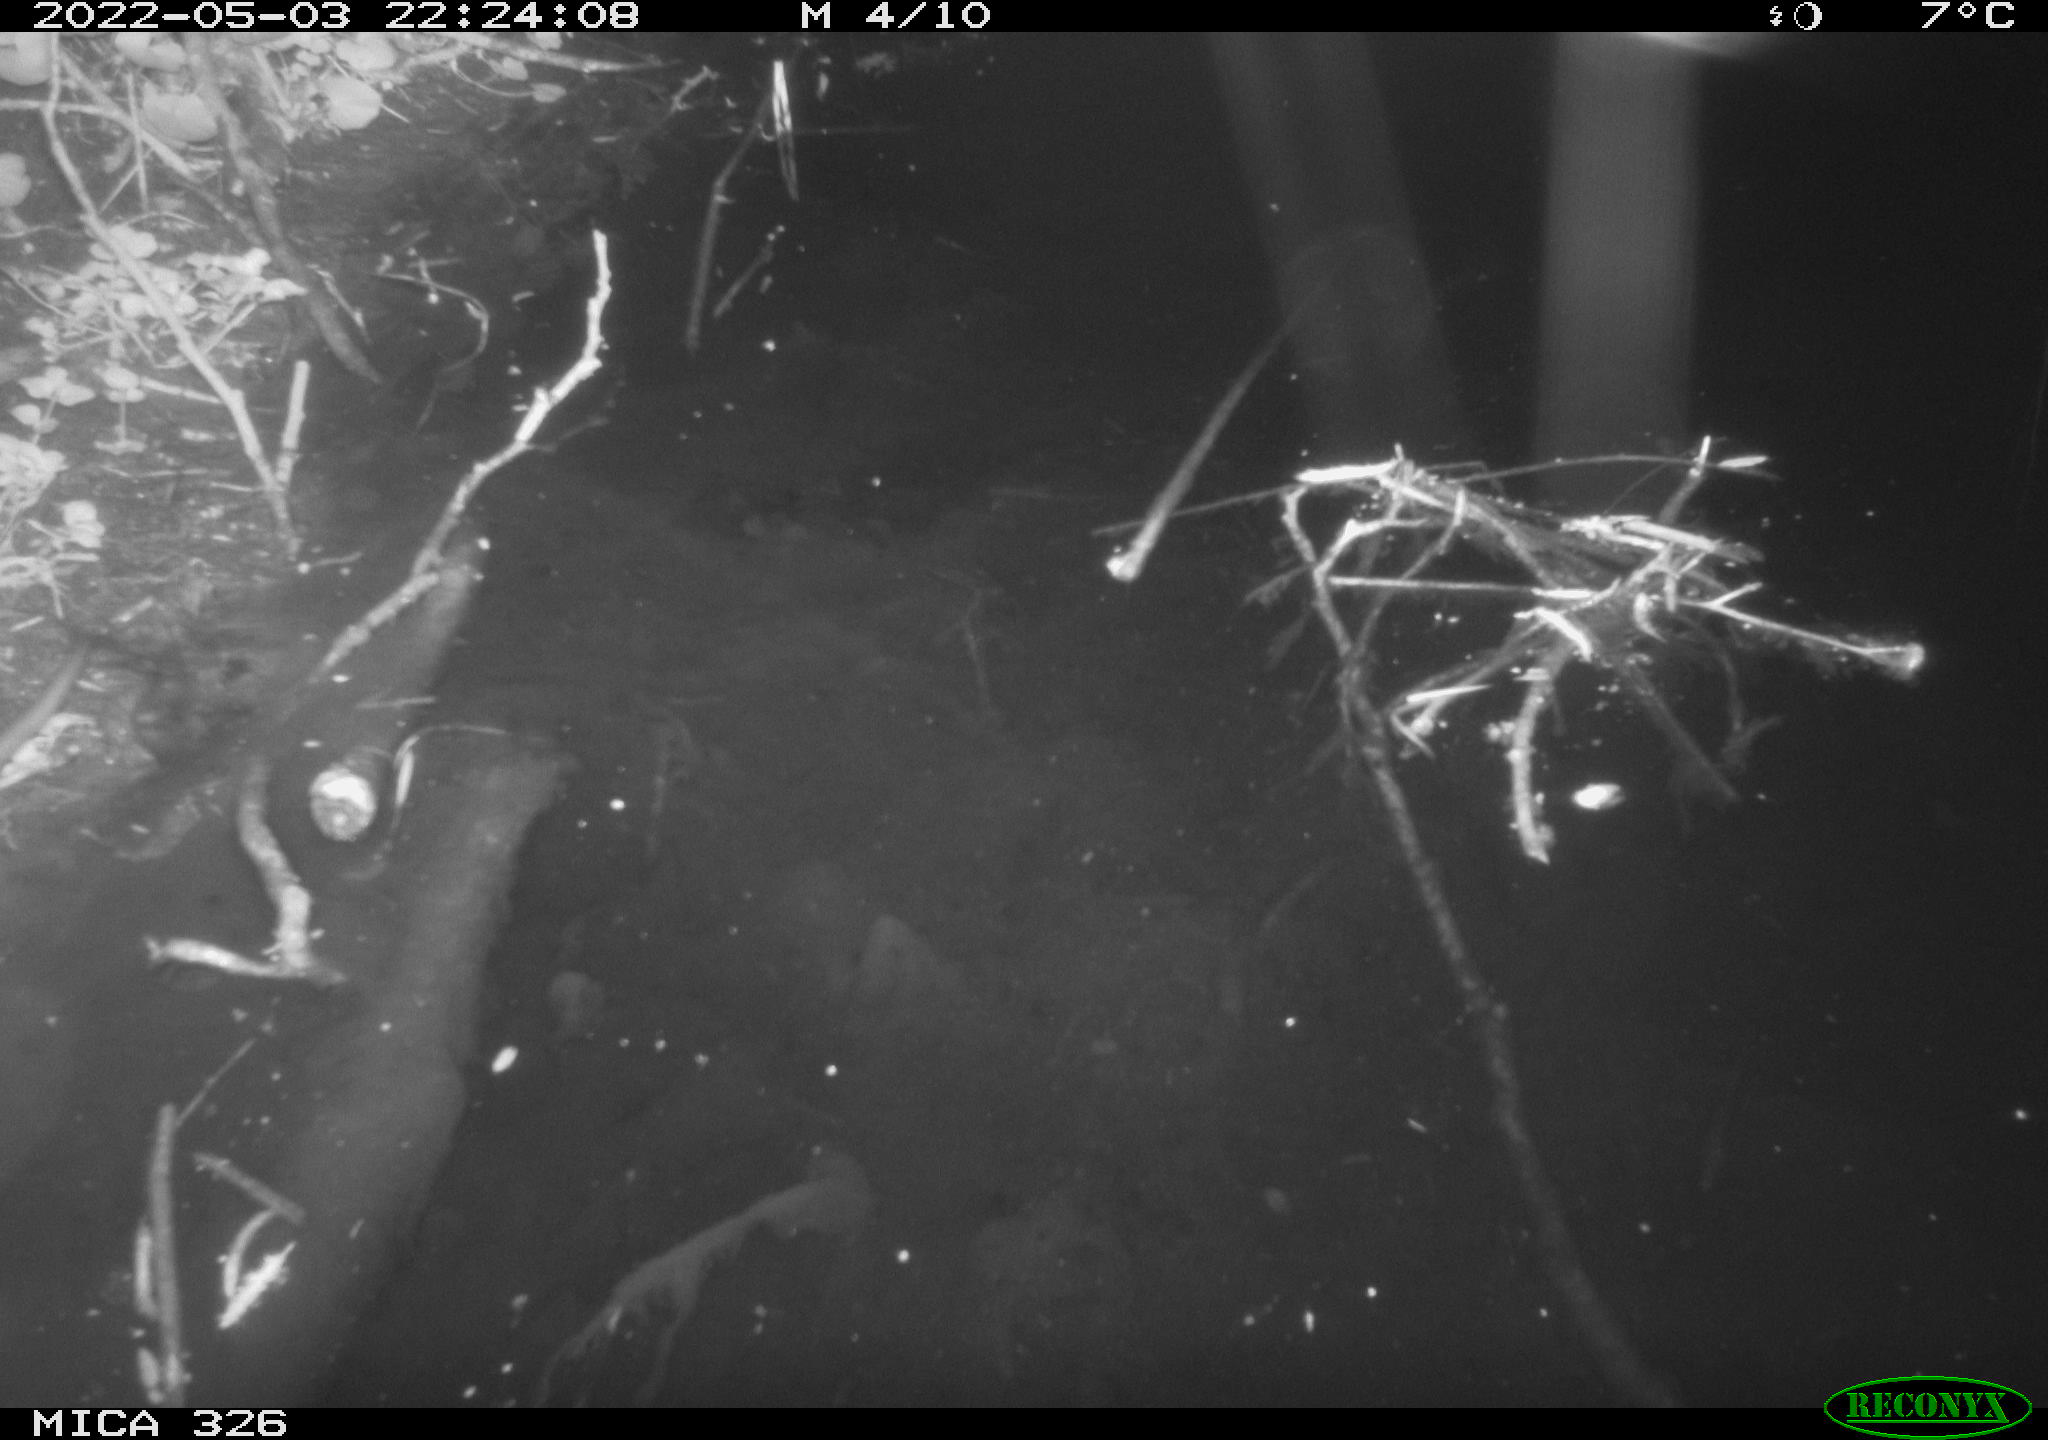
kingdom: Animalia
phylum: Chordata
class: Mammalia
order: Rodentia
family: Muridae
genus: Rattus
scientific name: Rattus norvegicus
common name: Brown rat
